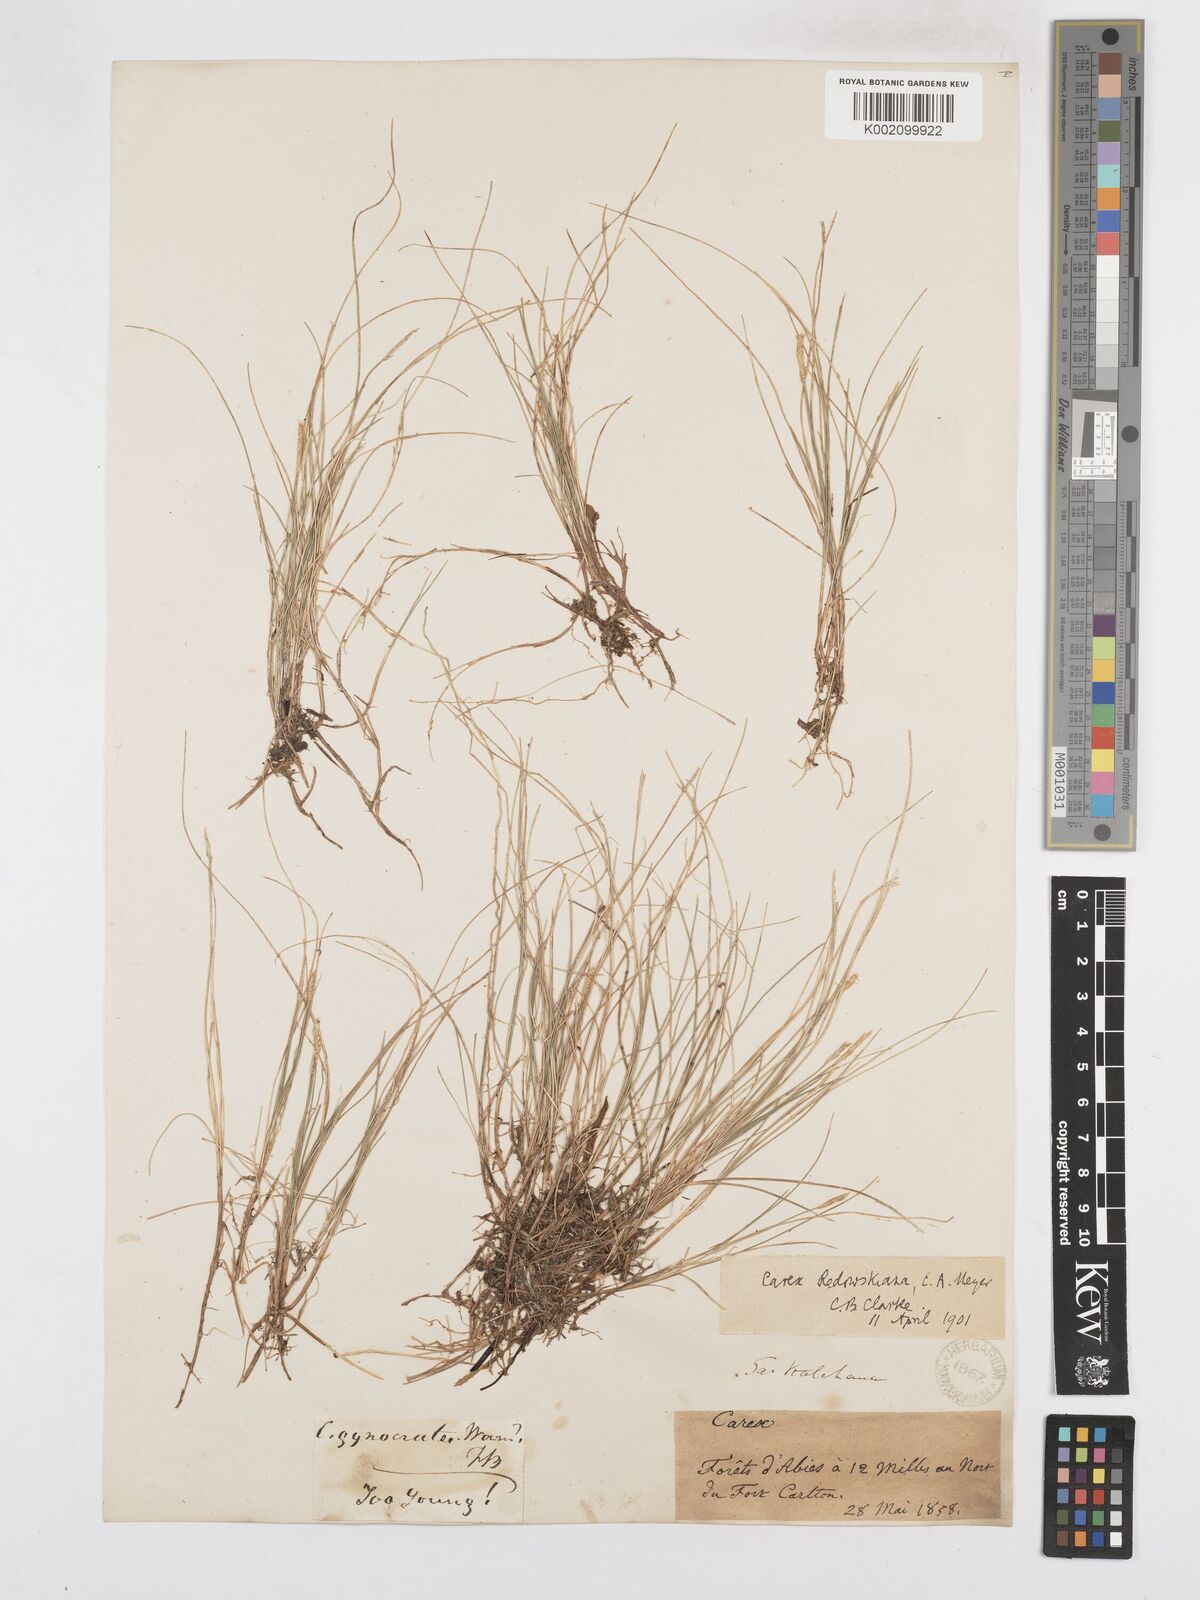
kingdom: Plantae
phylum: Tracheophyta
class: Liliopsida
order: Poales
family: Cyperaceae
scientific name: Cyperaceae
